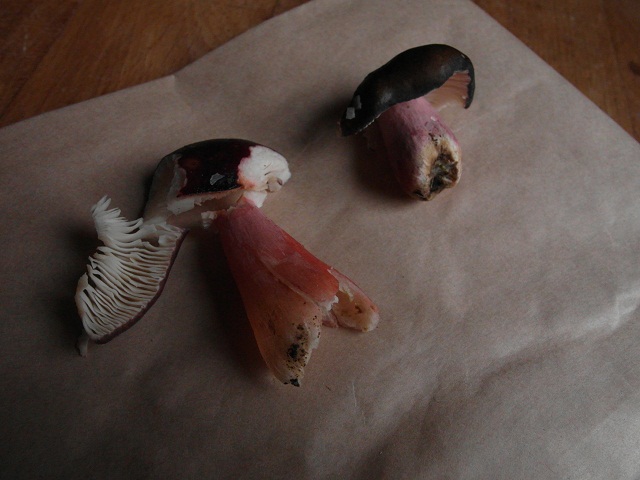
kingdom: Fungi
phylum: Basidiomycota
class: Agaricomycetes
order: Russulales
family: Russulaceae
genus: Russula
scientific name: Russula queletii
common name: Quélets skørhat
